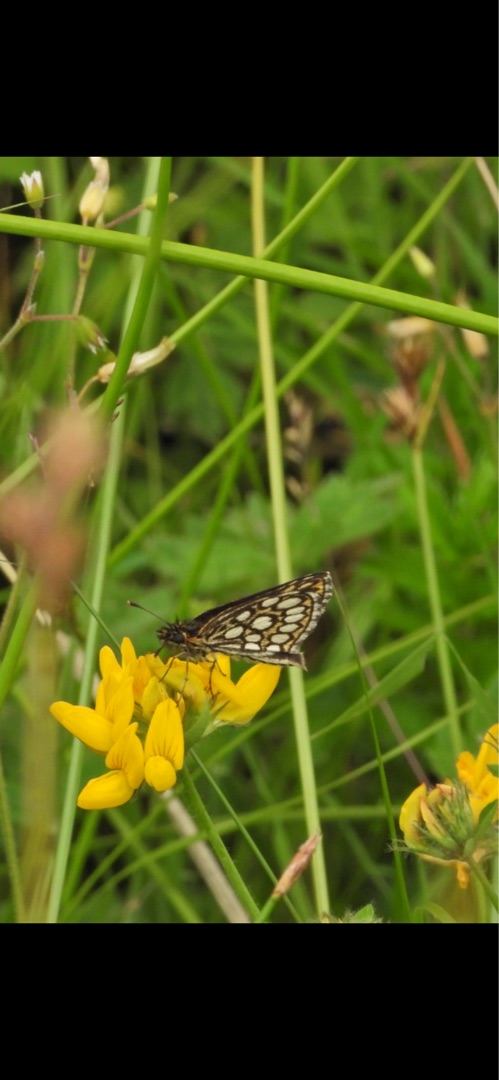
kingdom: Animalia
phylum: Arthropoda
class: Insecta
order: Lepidoptera
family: Hesperiidae
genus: Heteropterus
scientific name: Heteropterus morpheus
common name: Spejlbredpande
